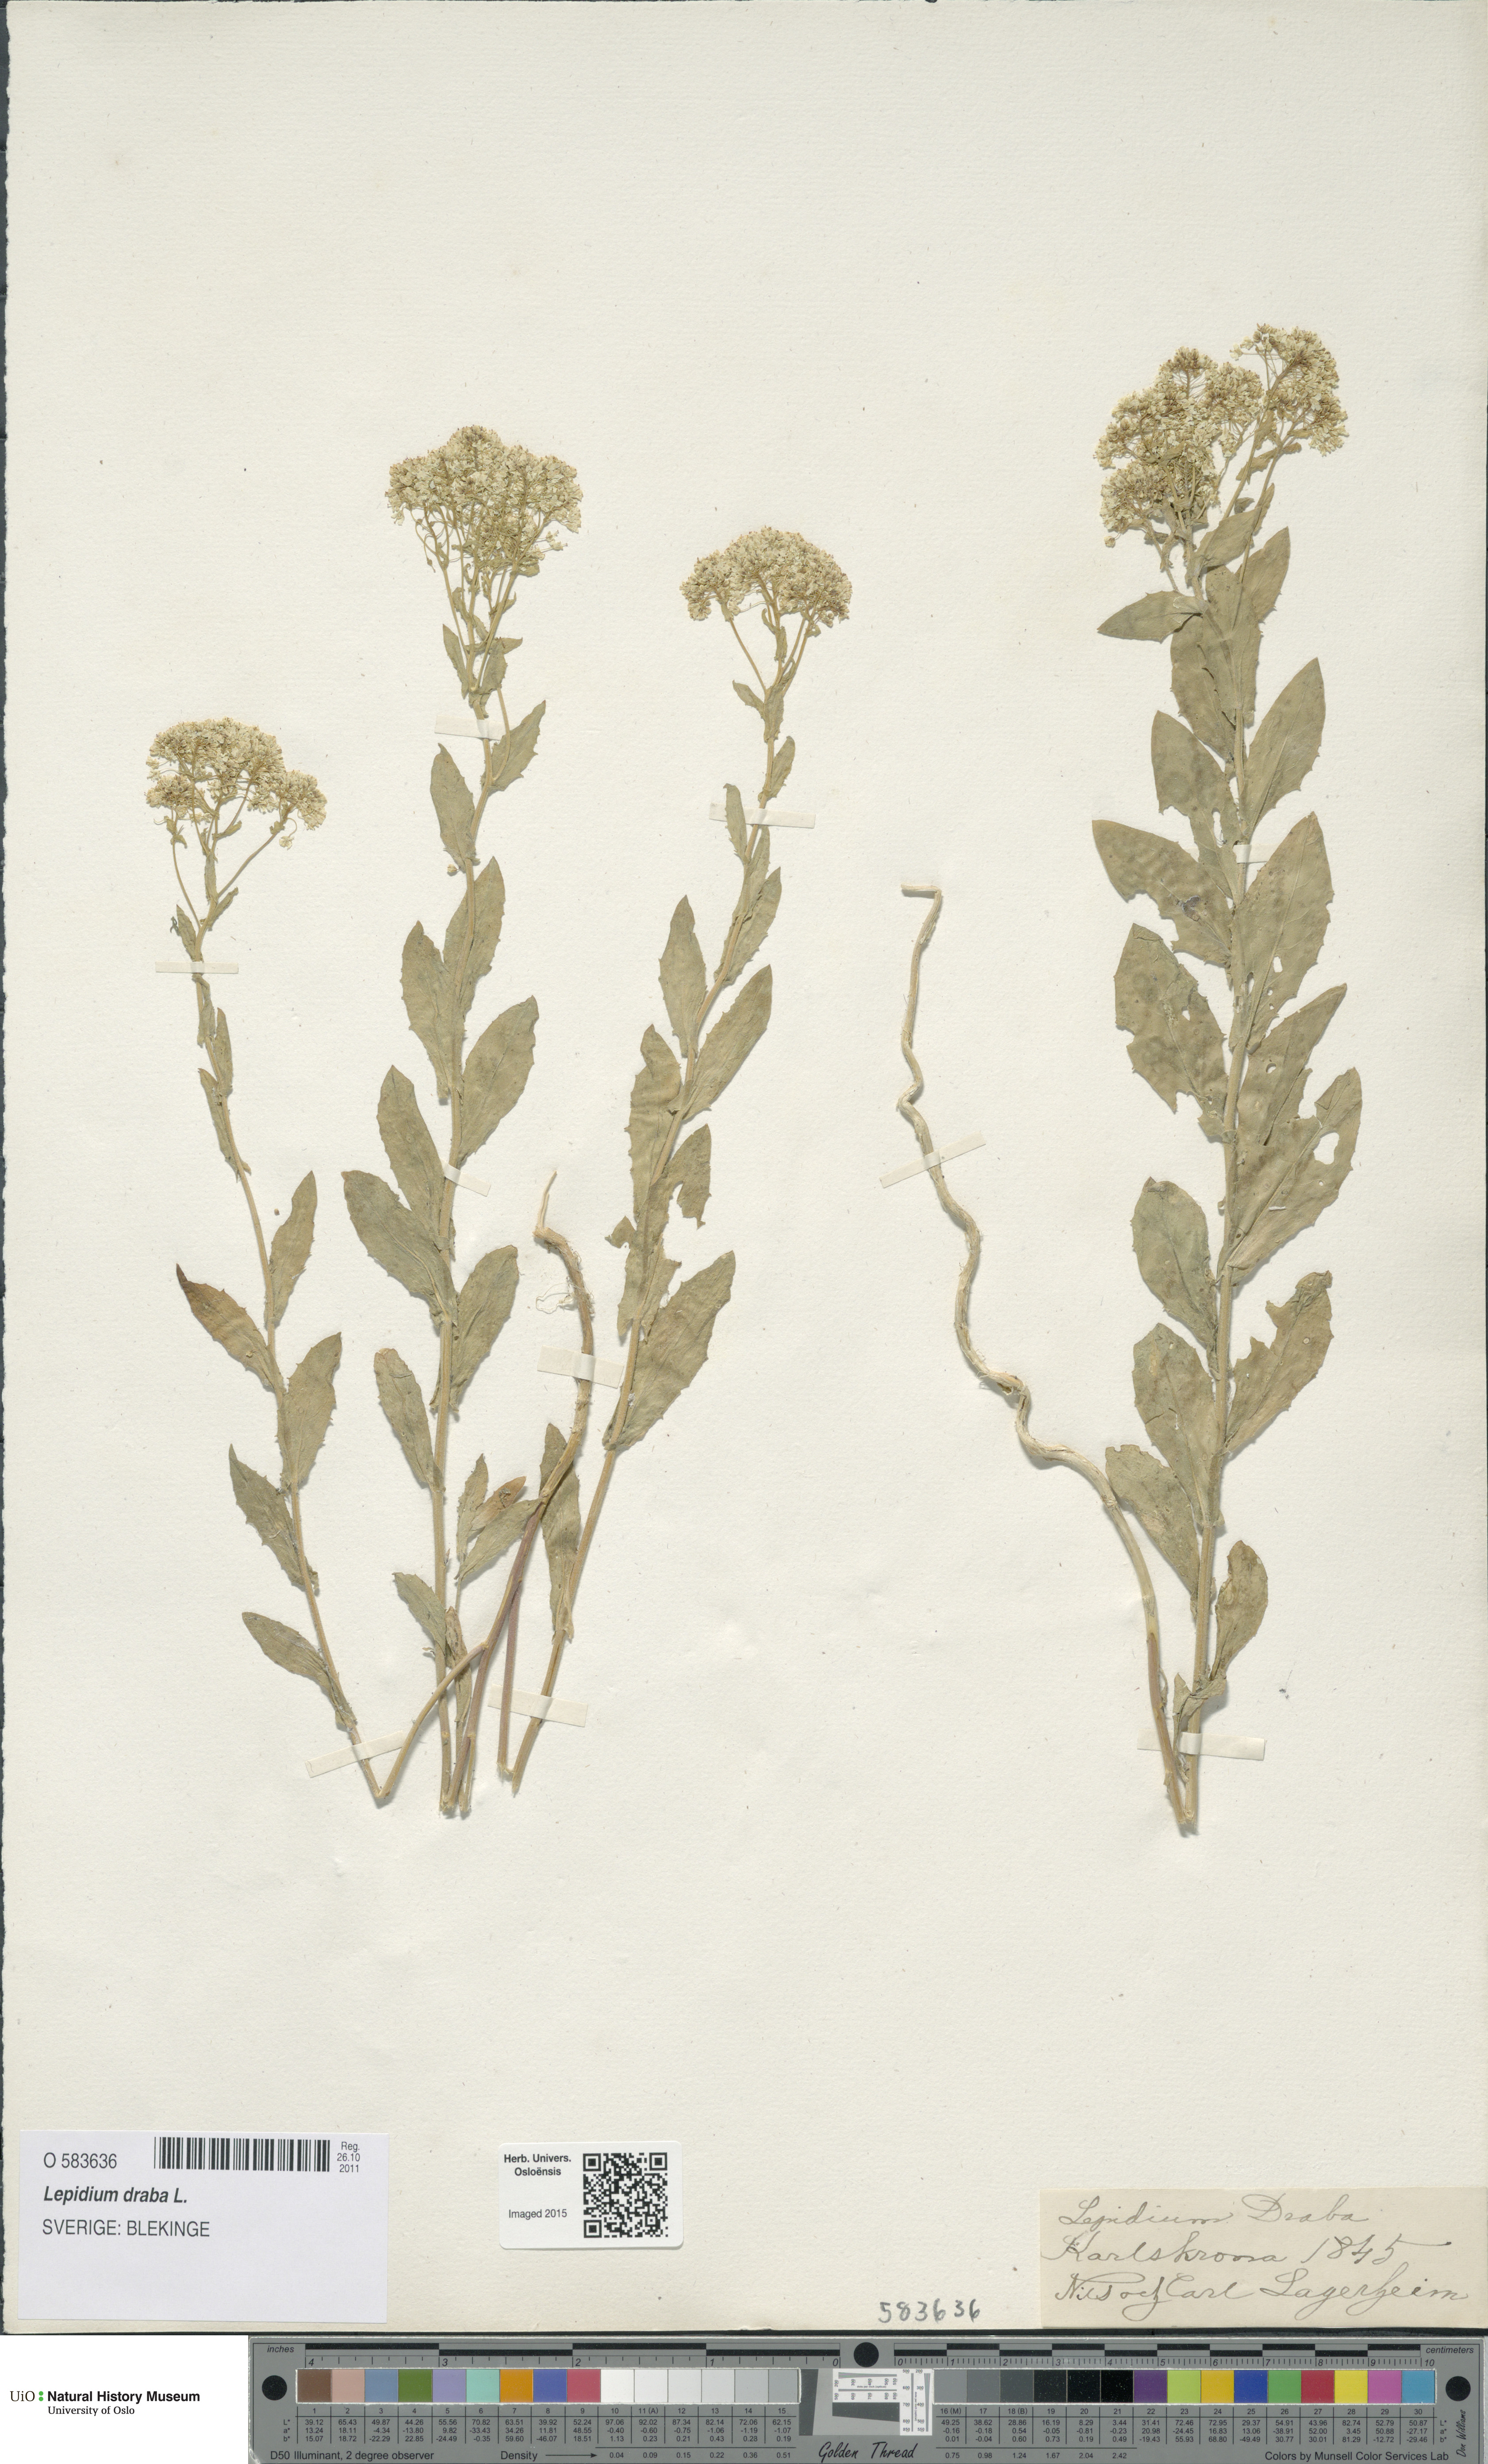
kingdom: Plantae
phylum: Tracheophyta
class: Magnoliopsida
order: Brassicales
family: Brassicaceae
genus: Lepidium
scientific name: Lepidium draba
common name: Hoary cress
